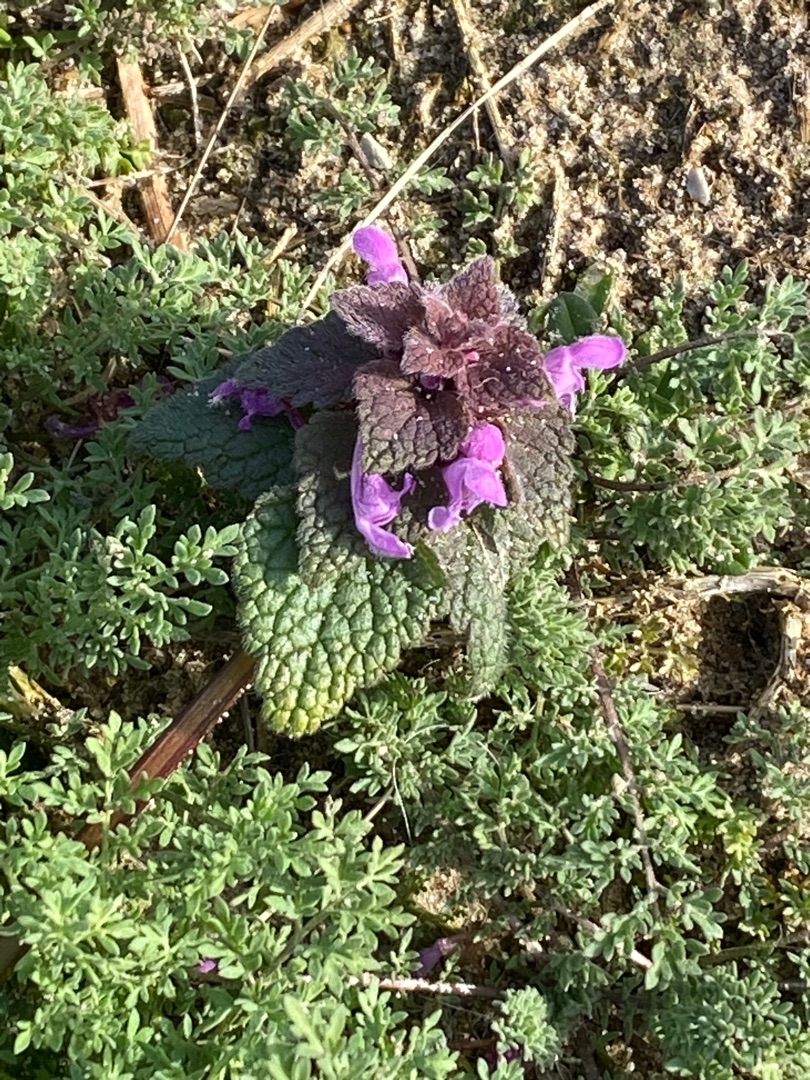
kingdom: Plantae
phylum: Tracheophyta
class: Magnoliopsida
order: Lamiales
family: Lamiaceae
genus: Lamium
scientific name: Lamium purpureum
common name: Rød tvetand
